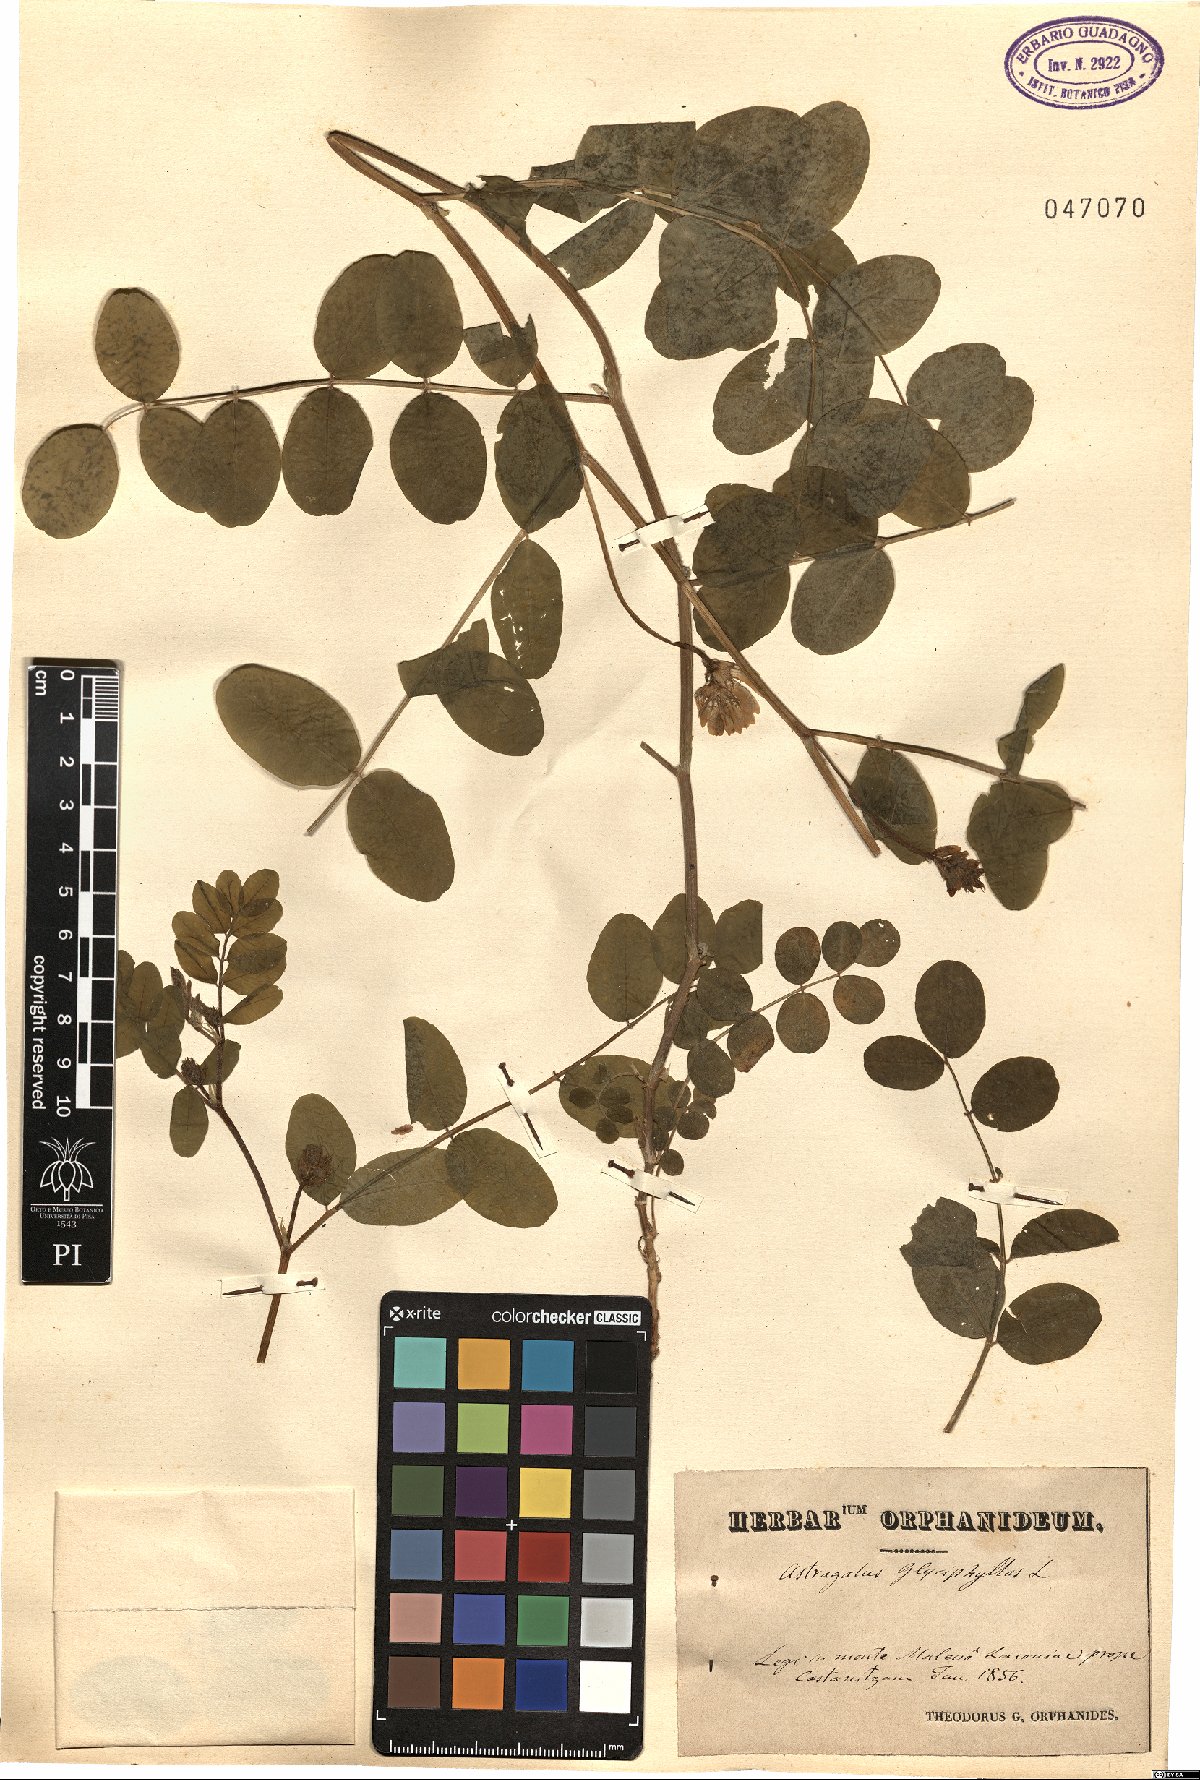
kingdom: Plantae
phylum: Tracheophyta
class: Magnoliopsida
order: Fabales
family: Fabaceae
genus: Astragalus
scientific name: Astragalus glycyphyllos
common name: Wild liquorice
